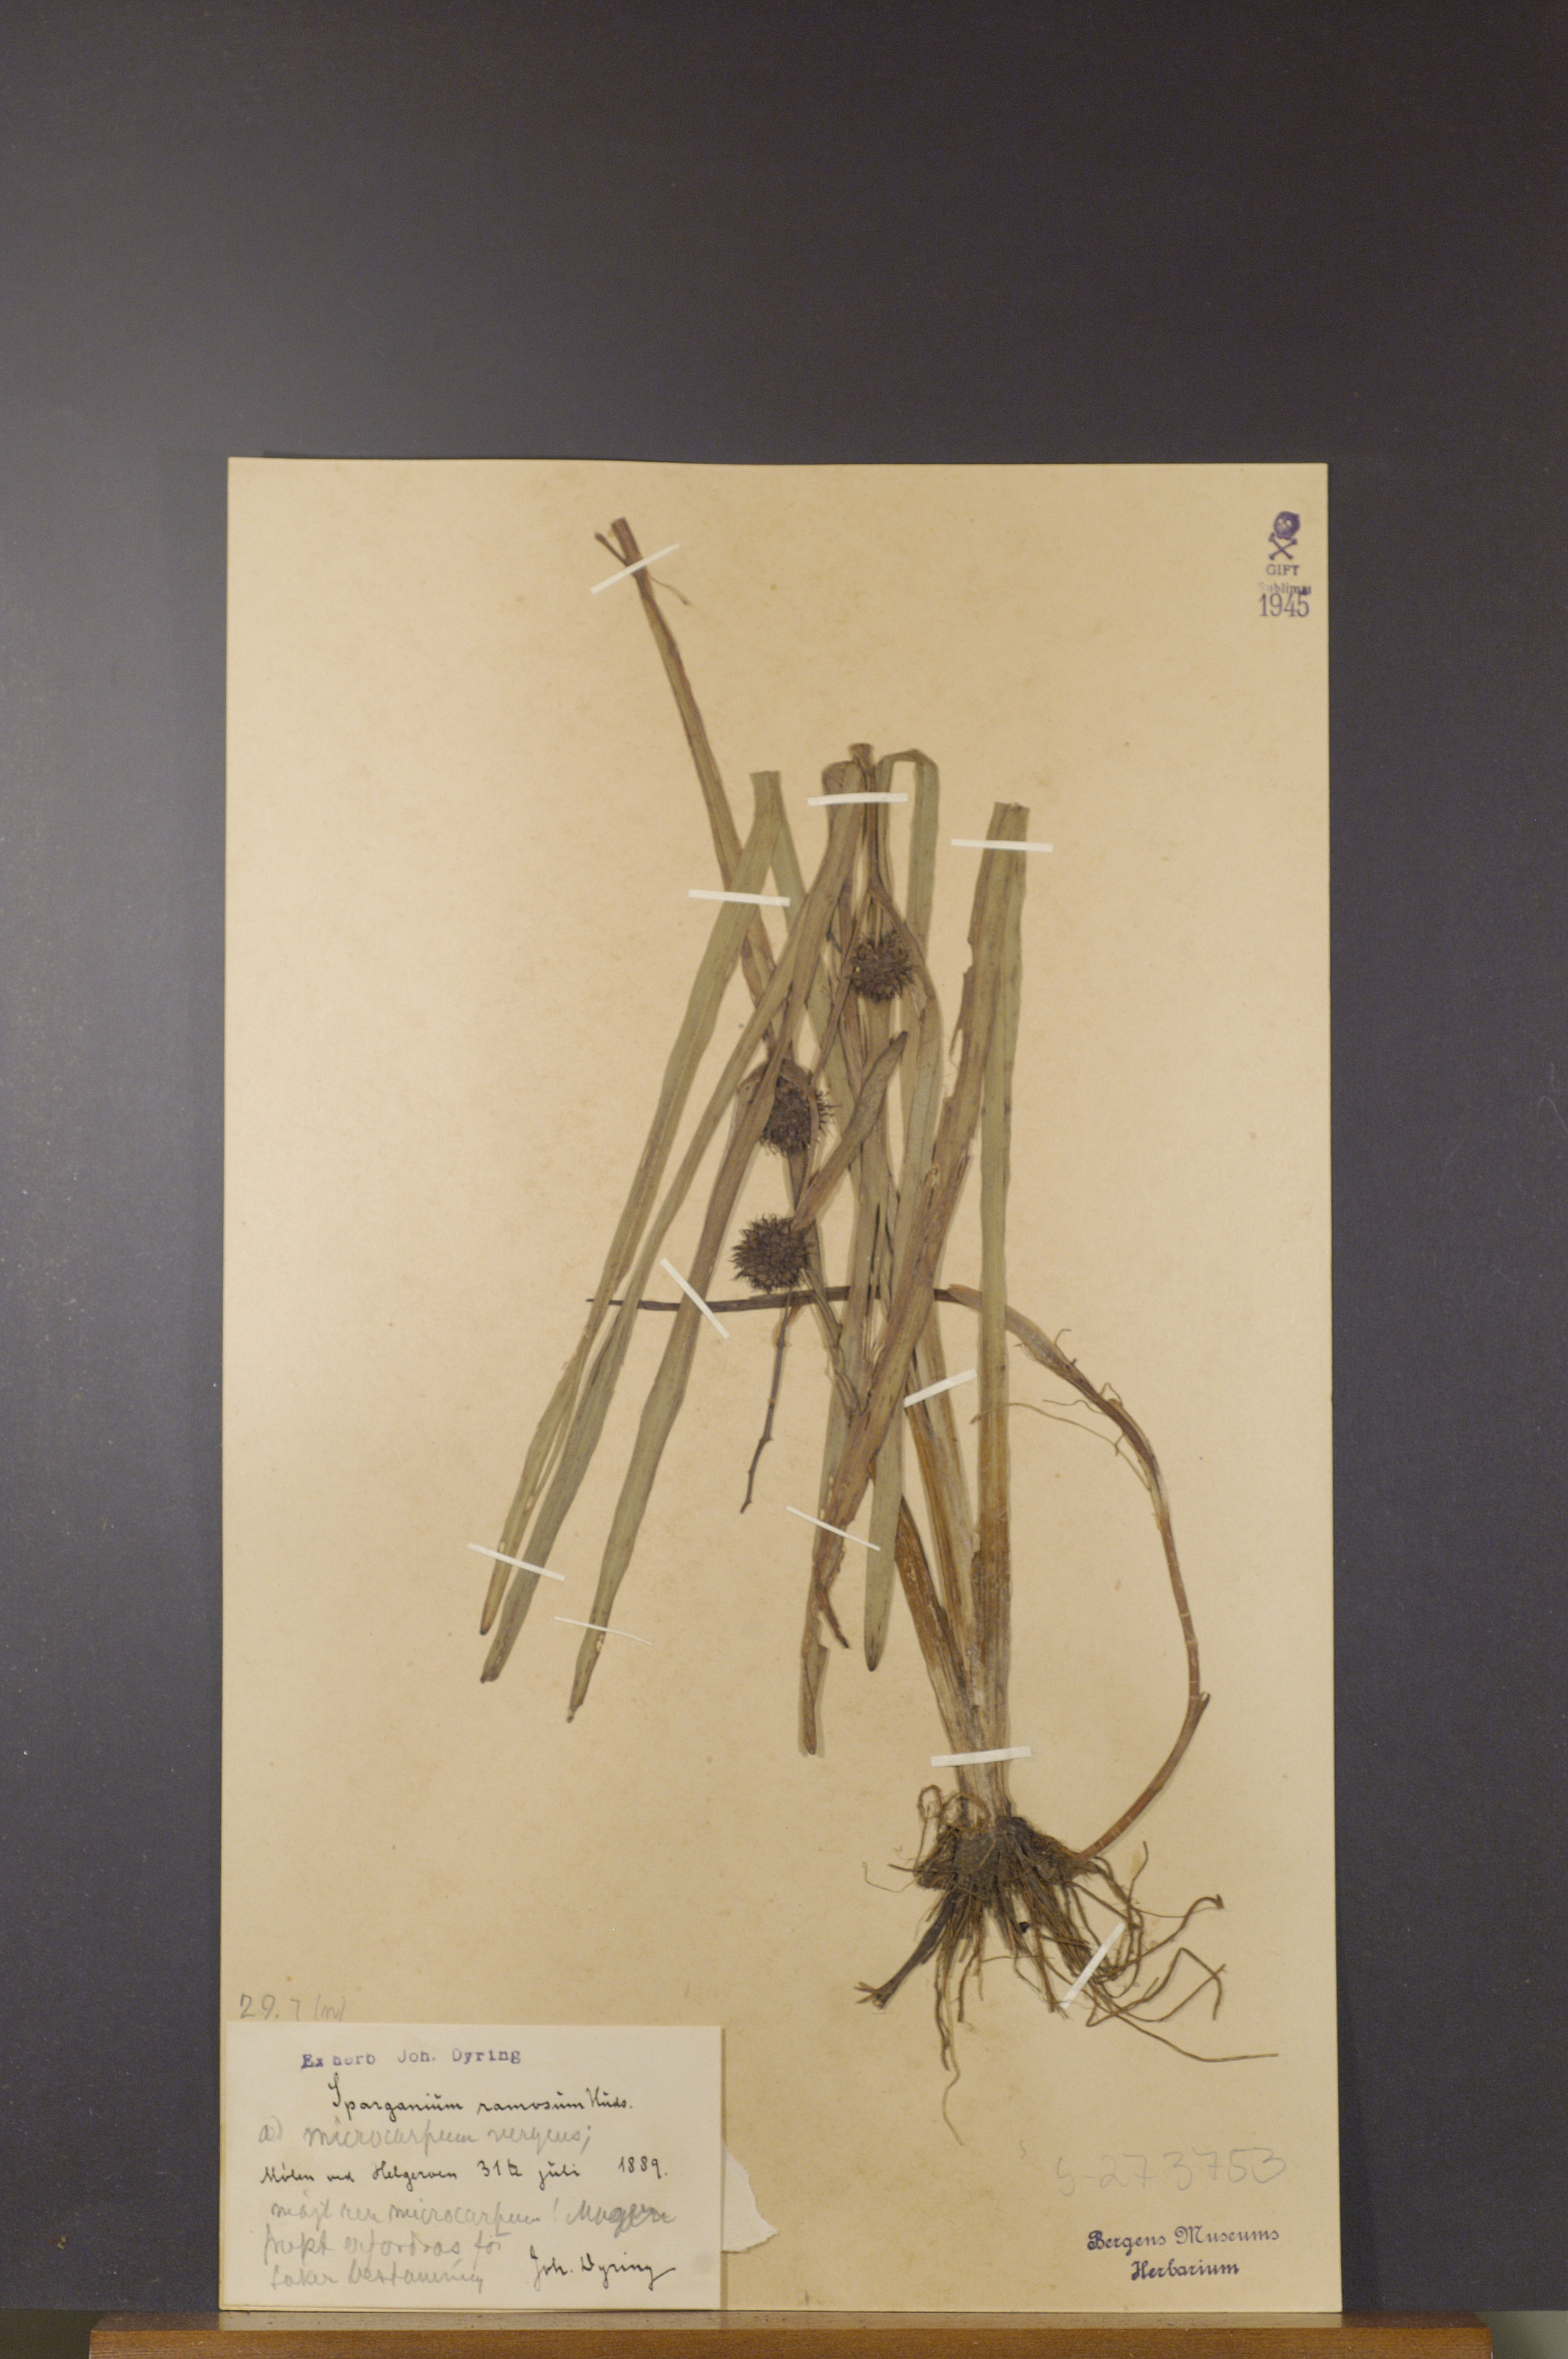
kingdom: Plantae
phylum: Tracheophyta
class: Liliopsida
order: Poales
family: Typhaceae
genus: Sparganium
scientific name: Sparganium erectum
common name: Branched bur-reed
